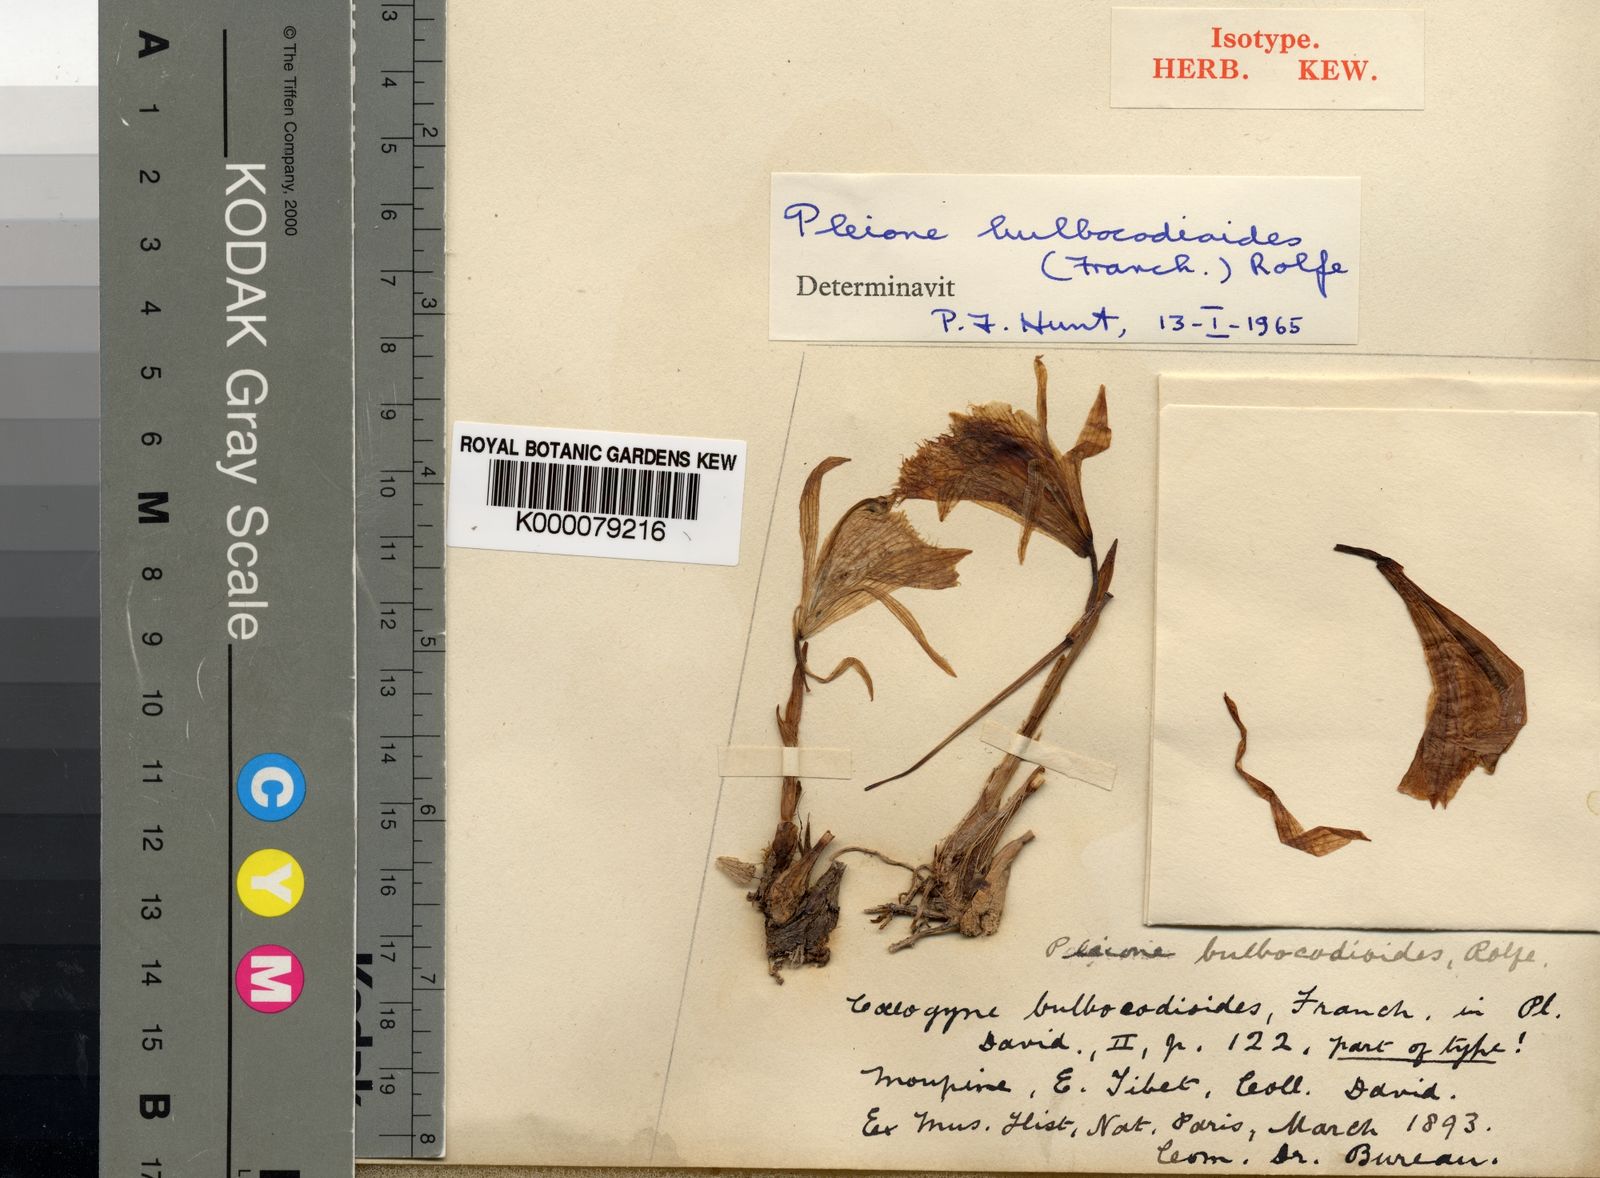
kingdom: Plantae
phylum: Tracheophyta
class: Liliopsida
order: Asparagales
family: Orchidaceae
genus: Pleione
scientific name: Pleione bulbocodioides
